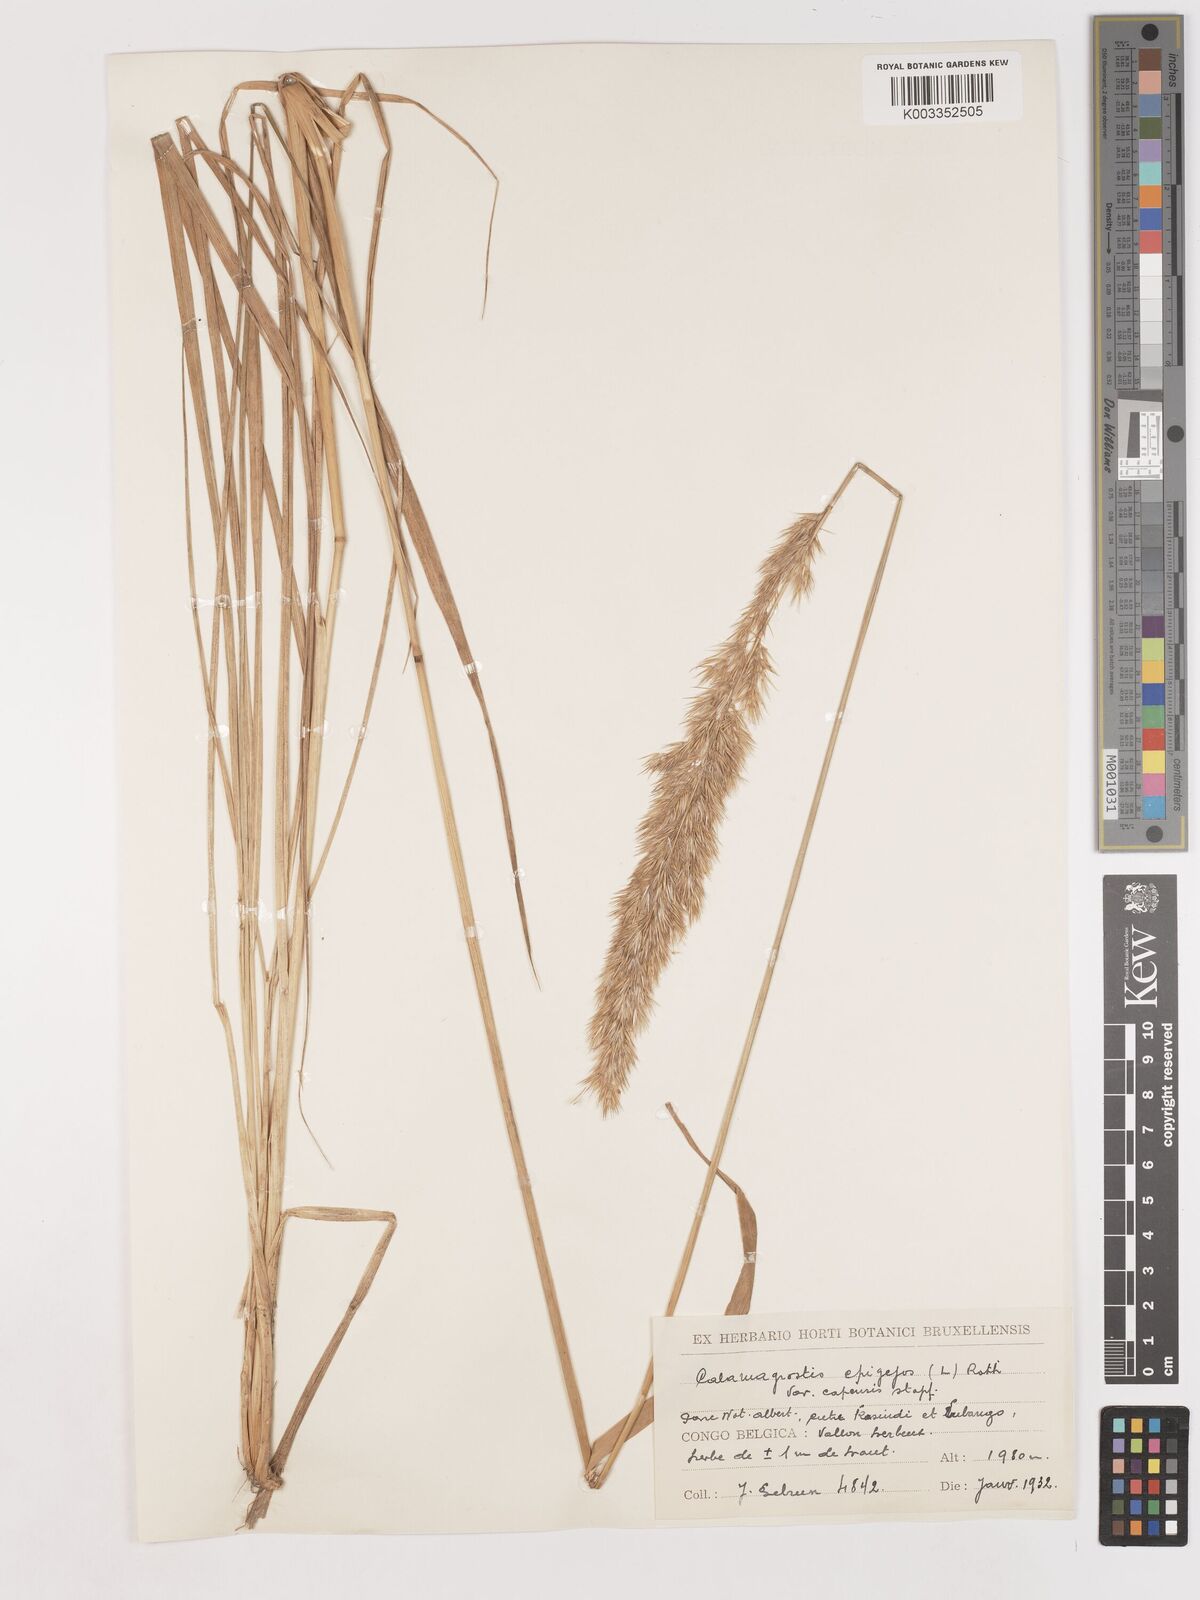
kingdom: Plantae
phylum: Tracheophyta
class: Liliopsida
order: Poales
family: Poaceae
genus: Calamagrostis
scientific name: Calamagrostis epigejos
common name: Wood small-reed
